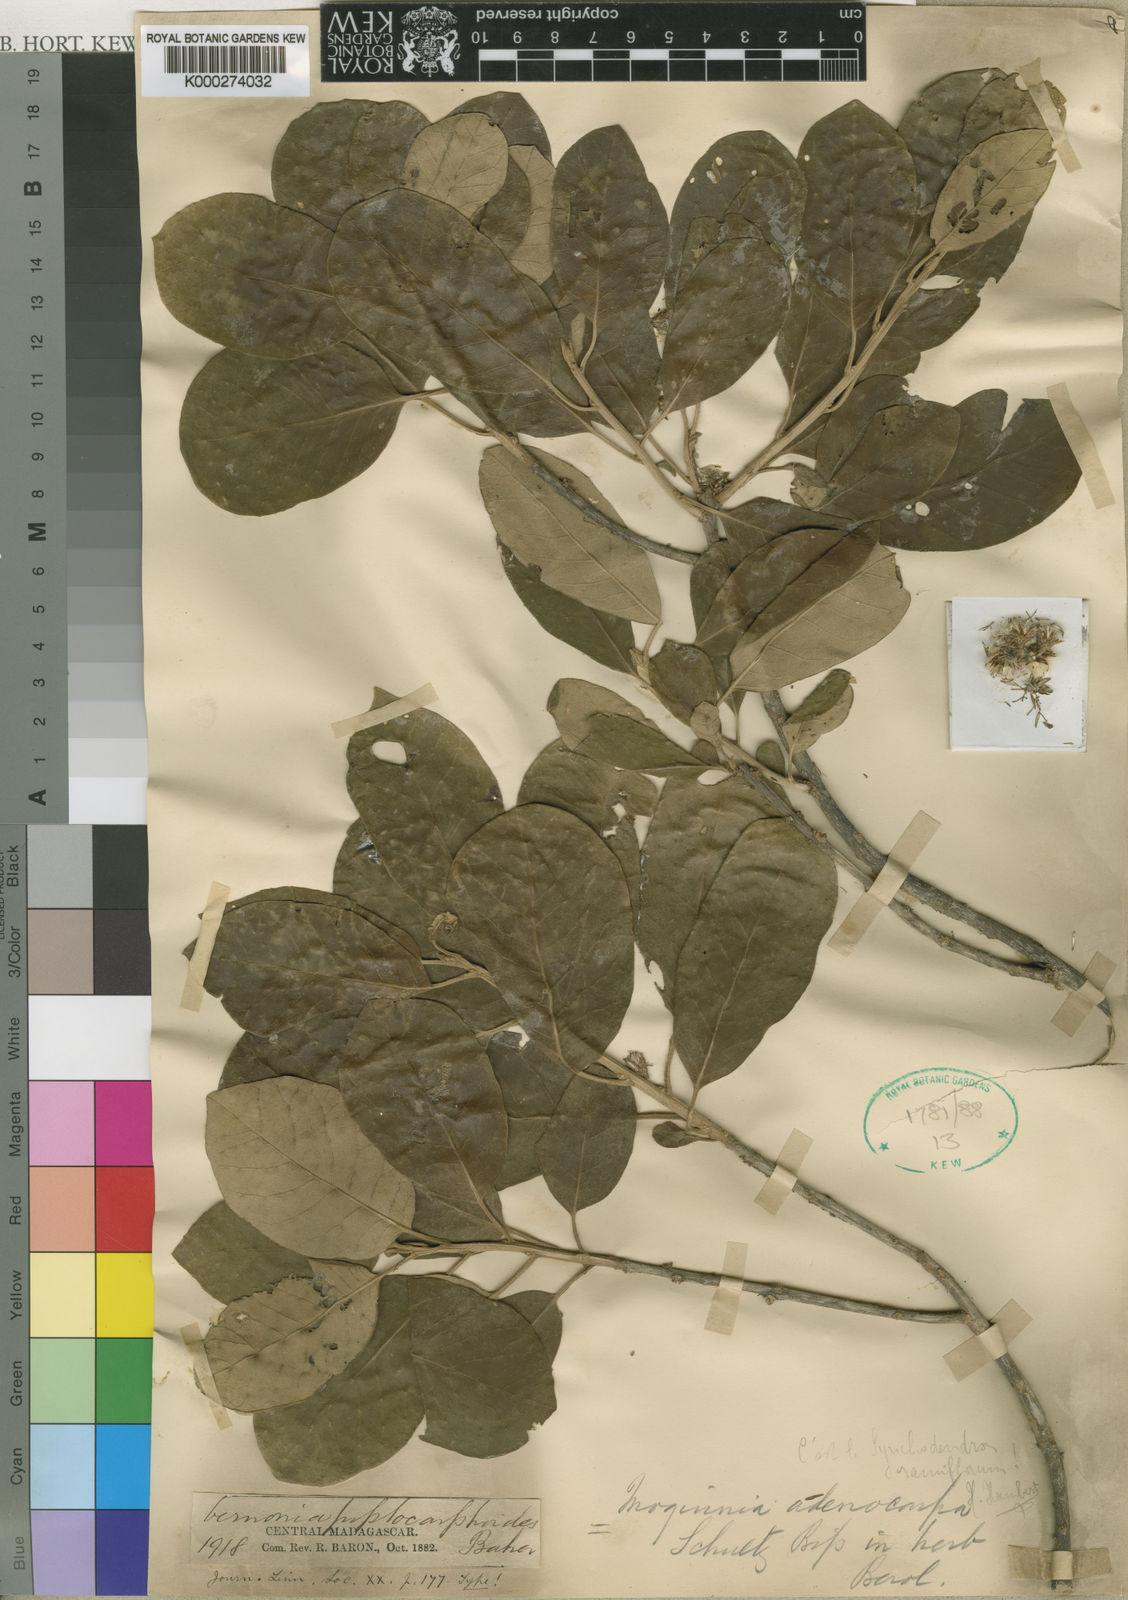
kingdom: Plantae
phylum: Tracheophyta
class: Magnoliopsida
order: Asterales
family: Asteraceae
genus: Brachylaena
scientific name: Brachylaena ramiflora
